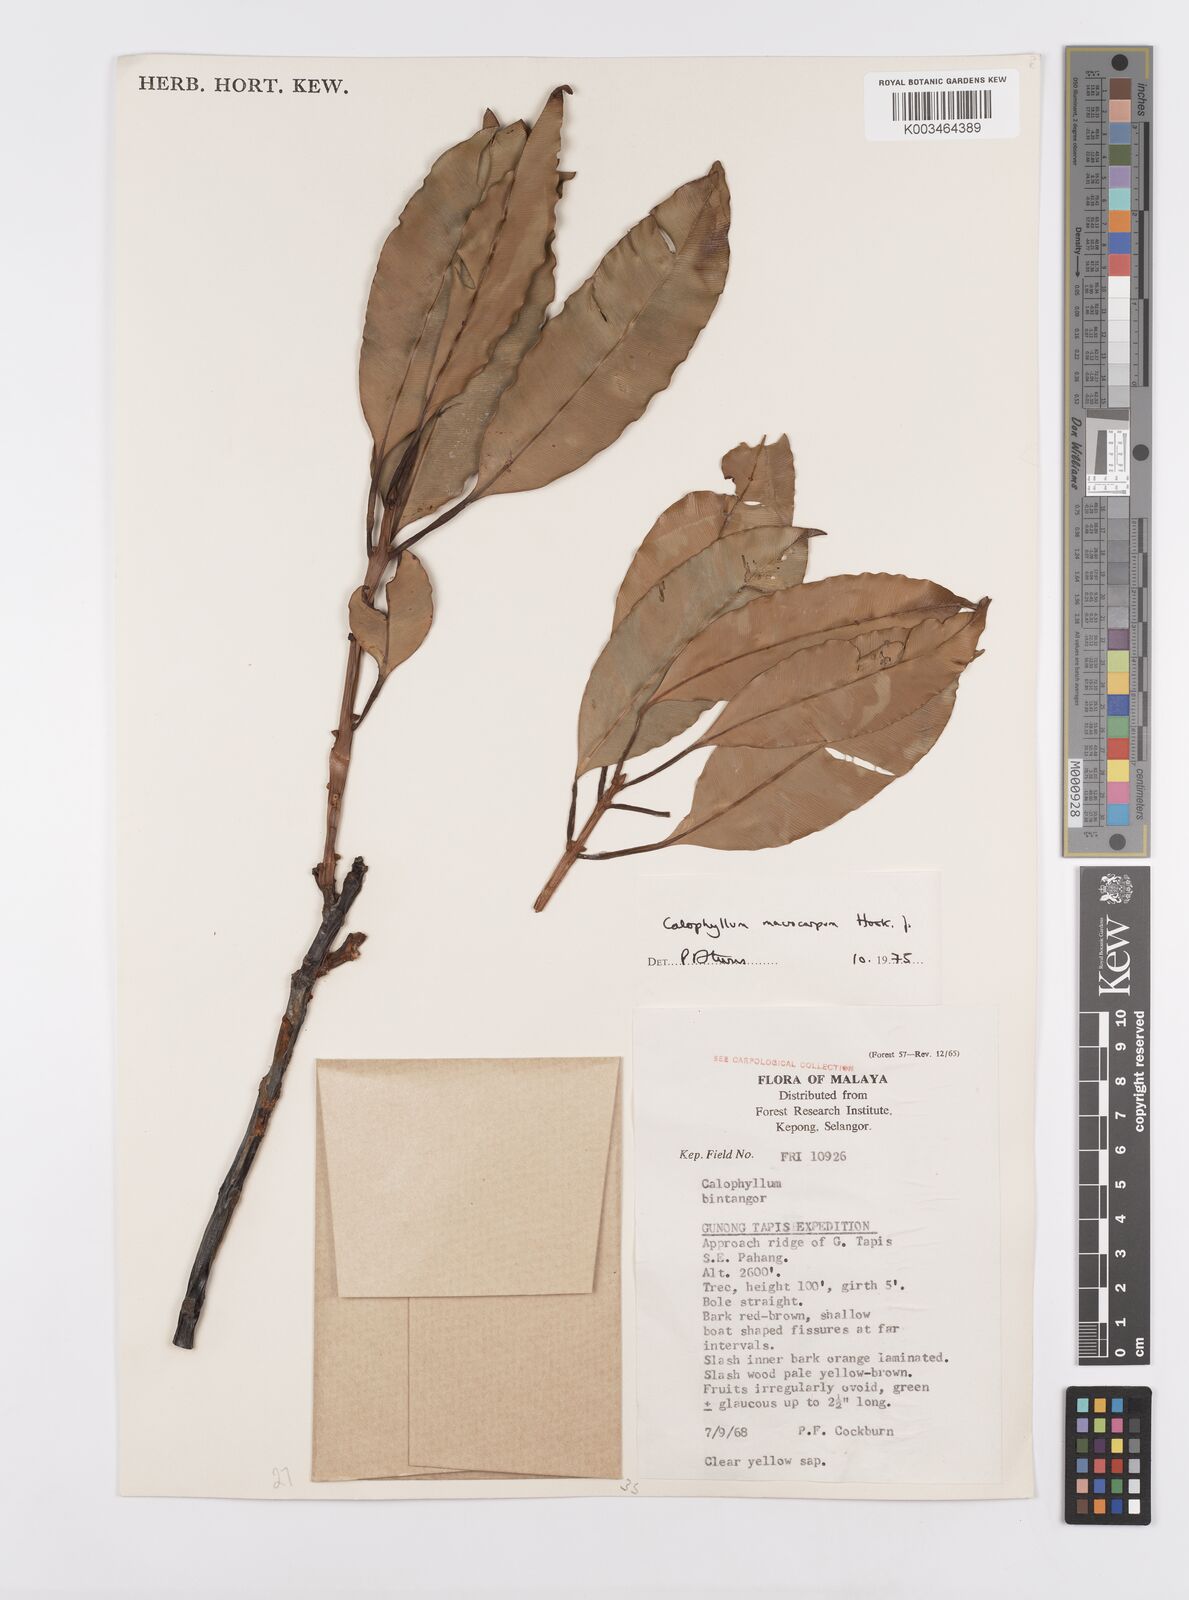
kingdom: Plantae
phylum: Tracheophyta
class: Magnoliopsida
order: Malpighiales
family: Calophyllaceae
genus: Calophyllum
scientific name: Calophyllum macrocarpum
